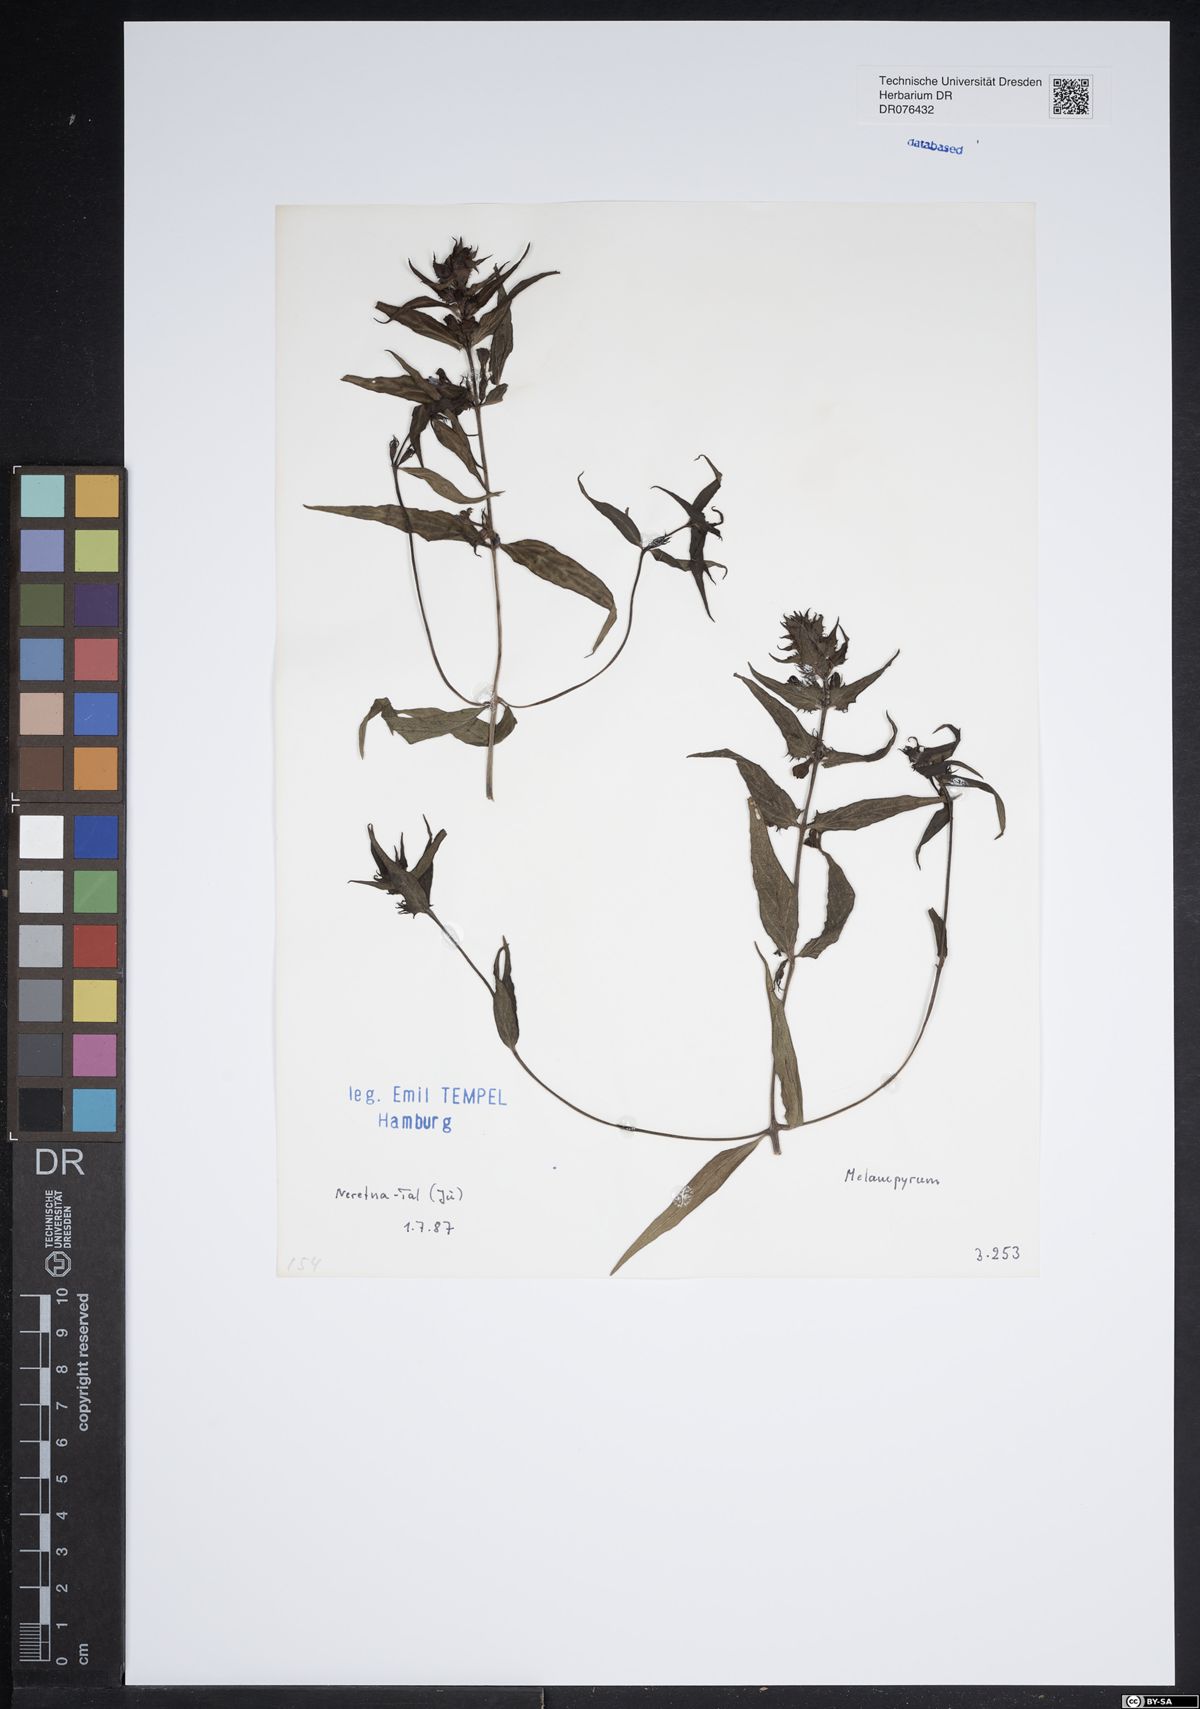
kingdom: Plantae
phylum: Tracheophyta
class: Magnoliopsida
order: Lamiales
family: Orobanchaceae
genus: Melampyrum
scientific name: Melampyrum
